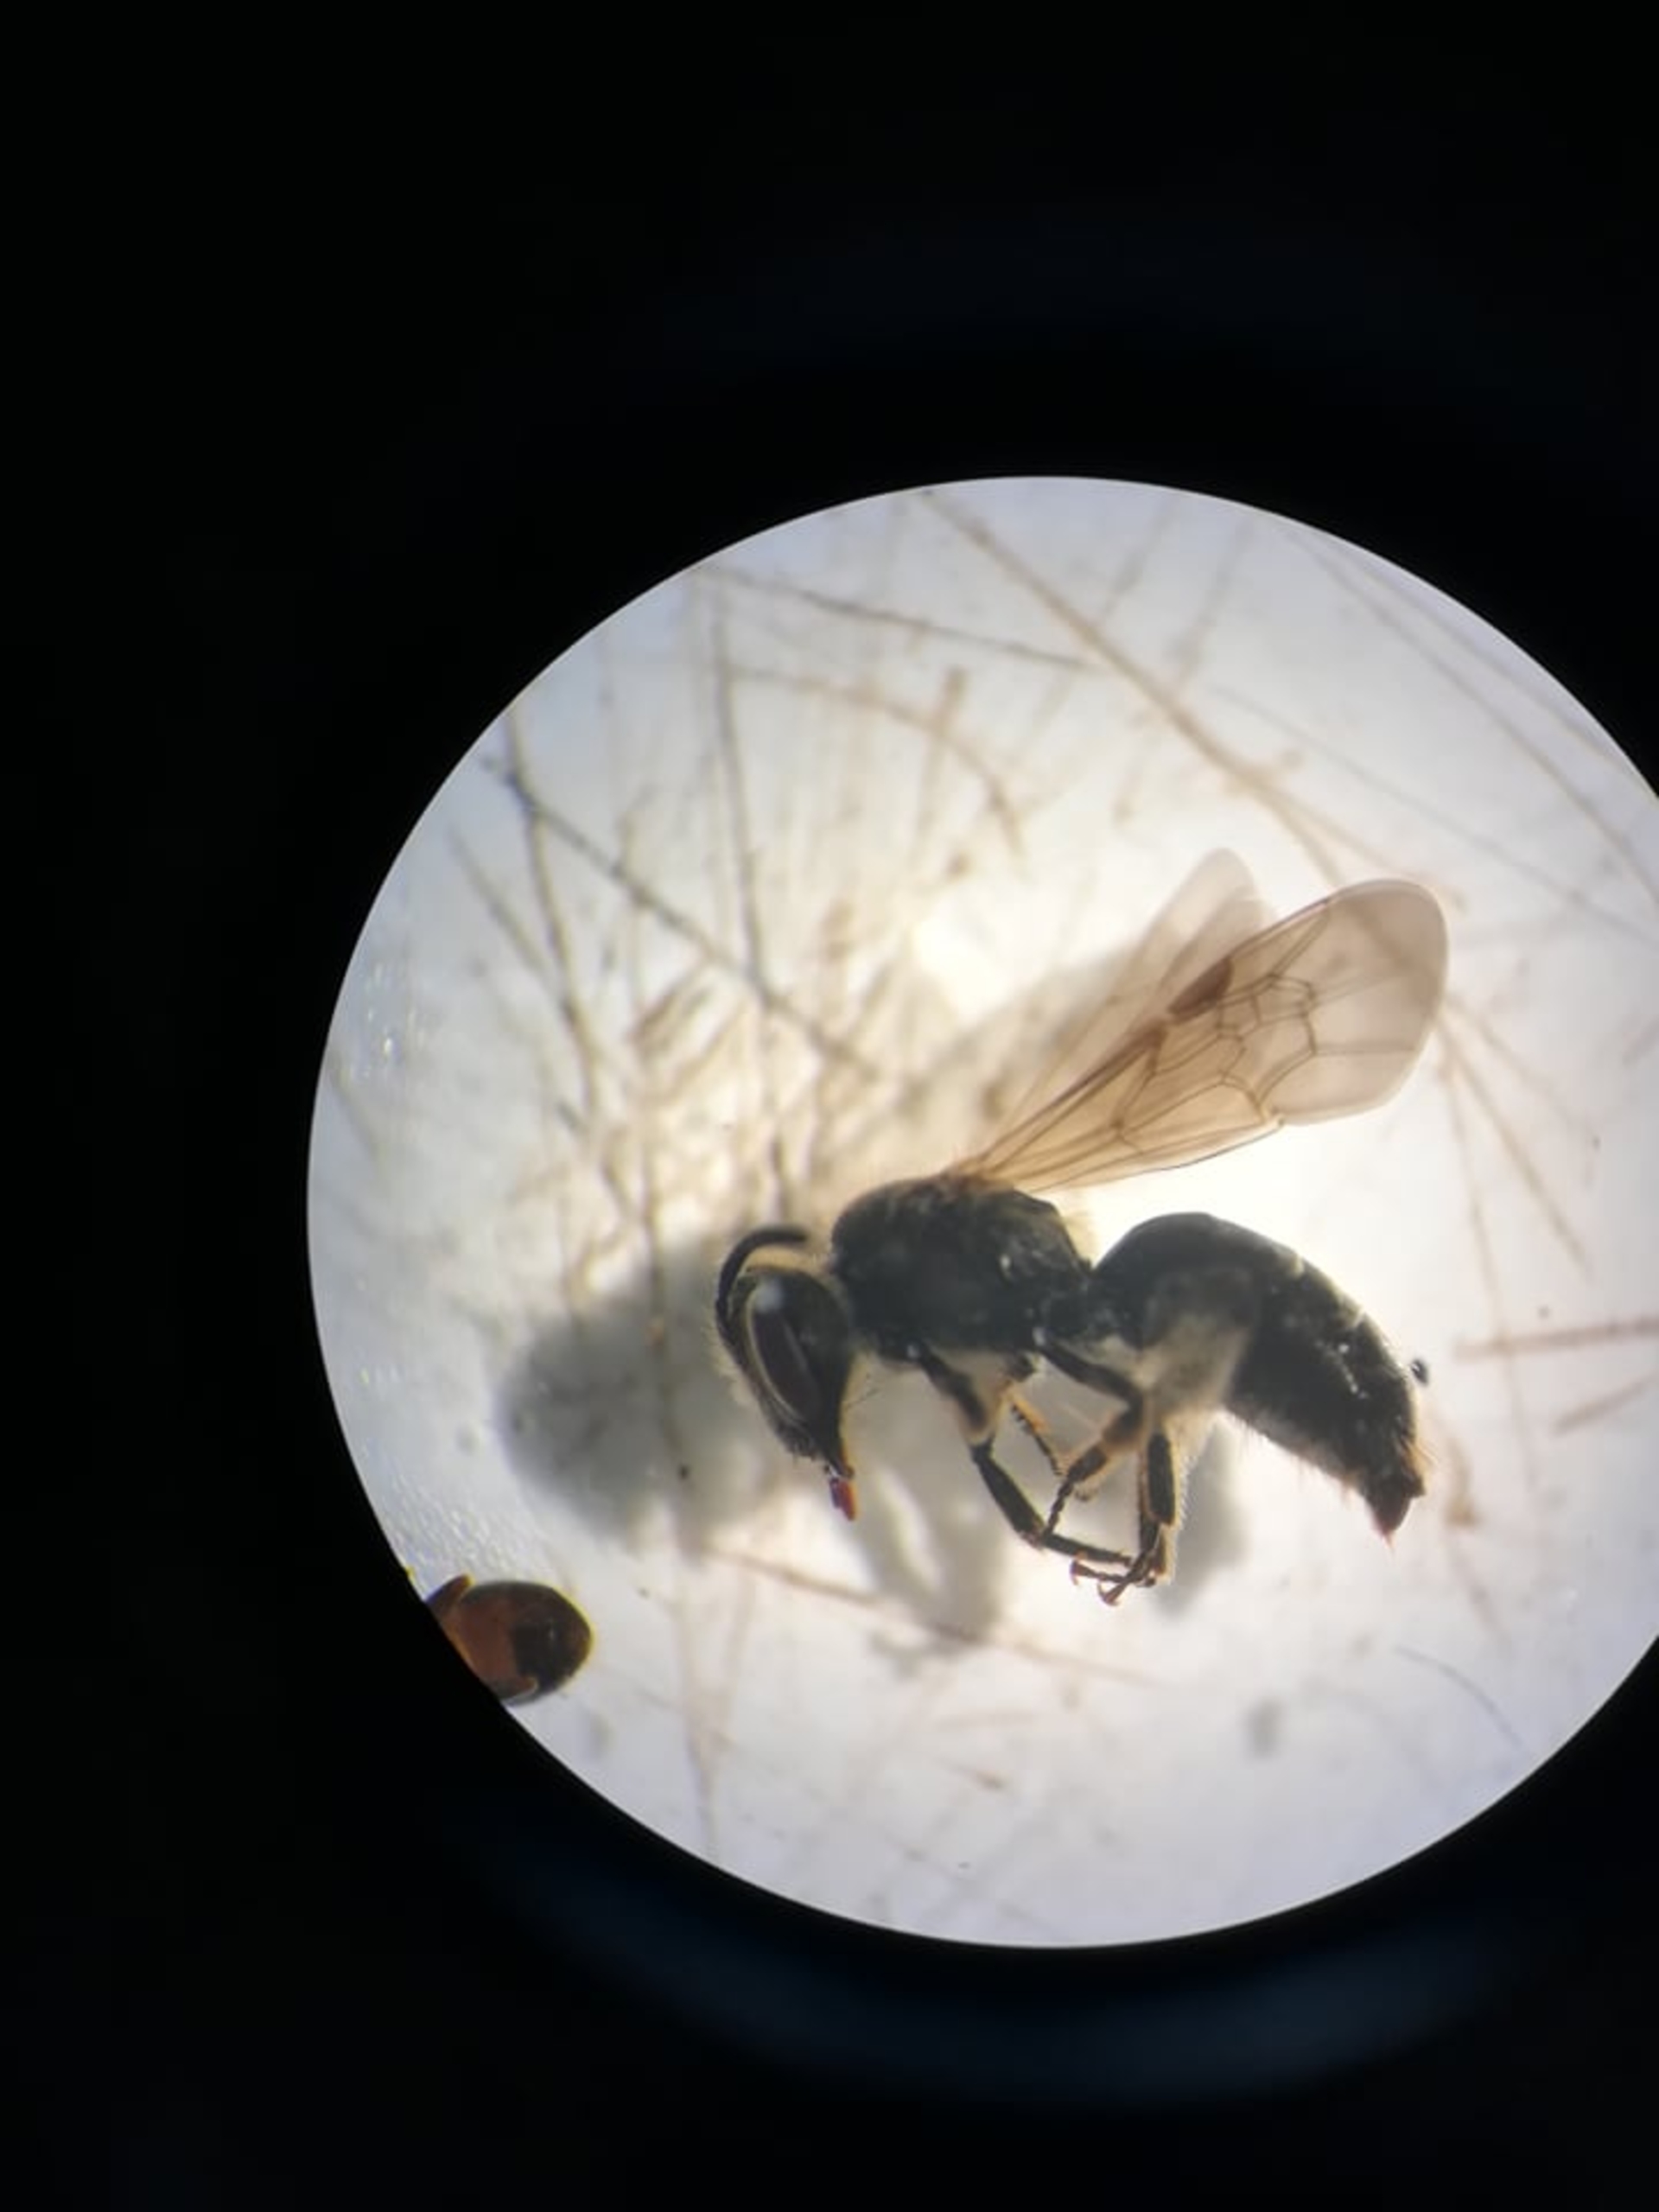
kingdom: Animalia
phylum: Arthropoda
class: Insecta
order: Hymenoptera
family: Crabronidae
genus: Crossocerus
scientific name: Crossocerus
